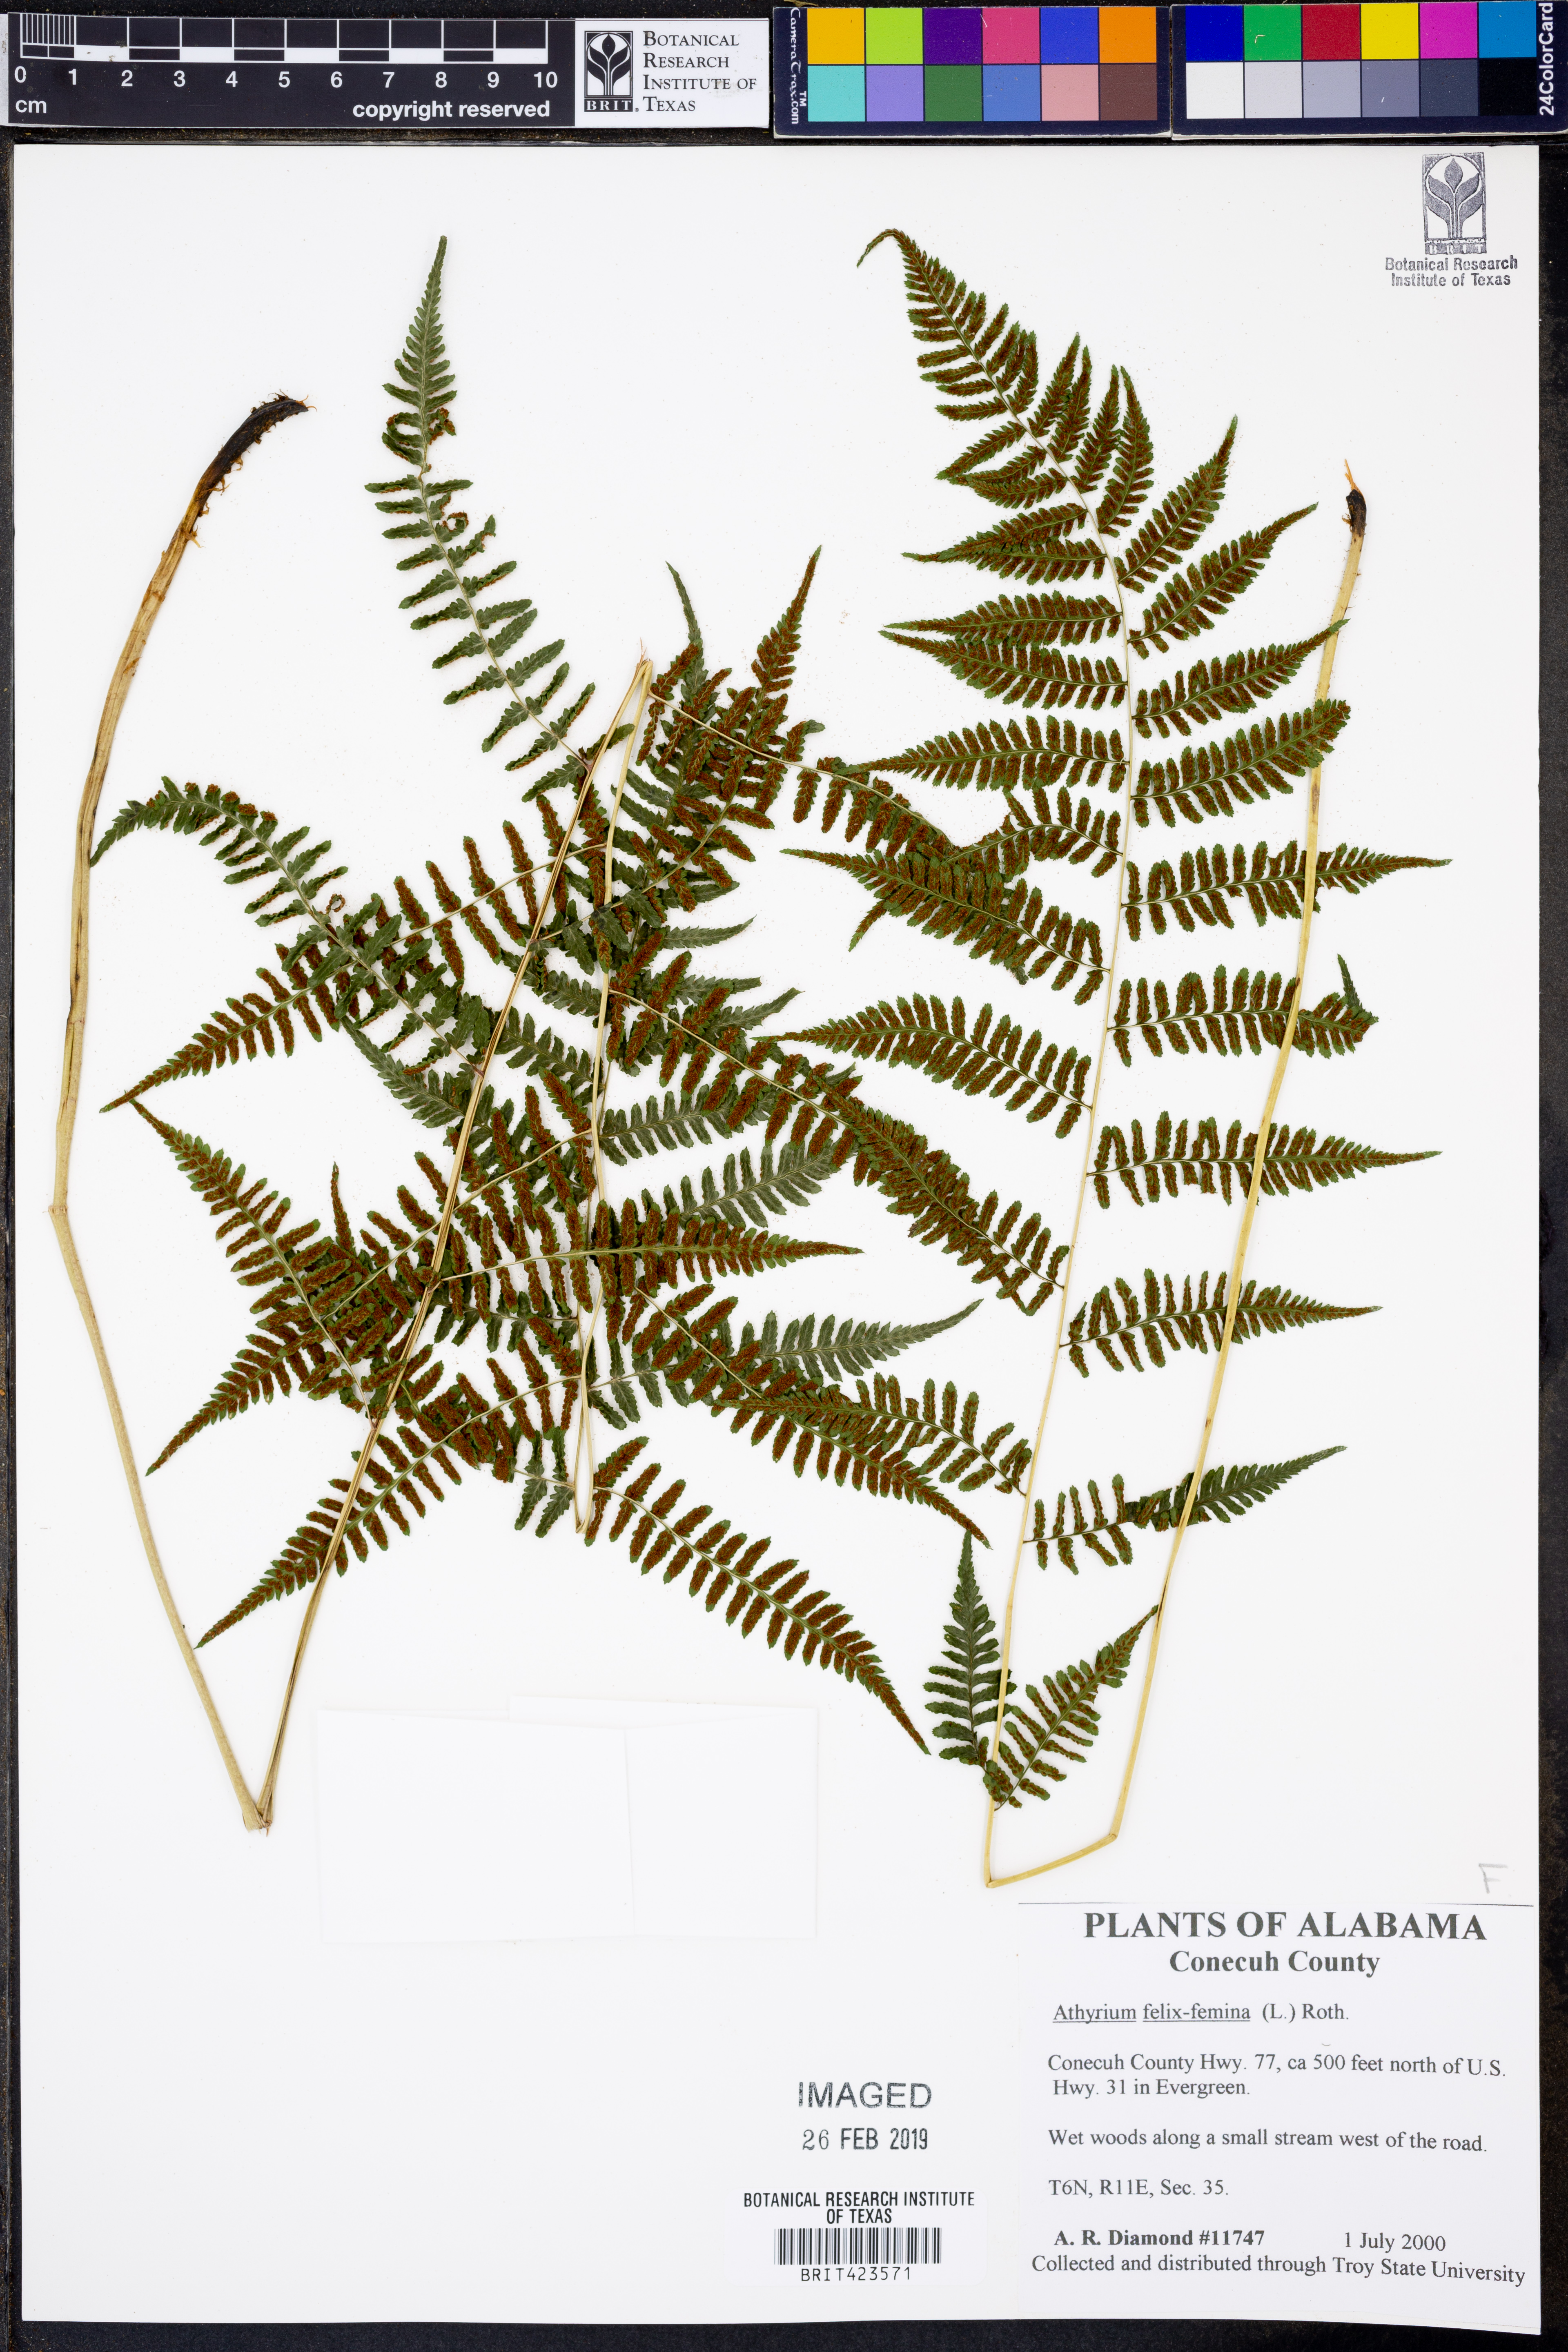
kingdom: Plantae
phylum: Tracheophyta
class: Polypodiopsida
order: Polypodiales
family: Athyriaceae
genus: Athyrium
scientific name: Athyrium filix-femina
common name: Lady fern
